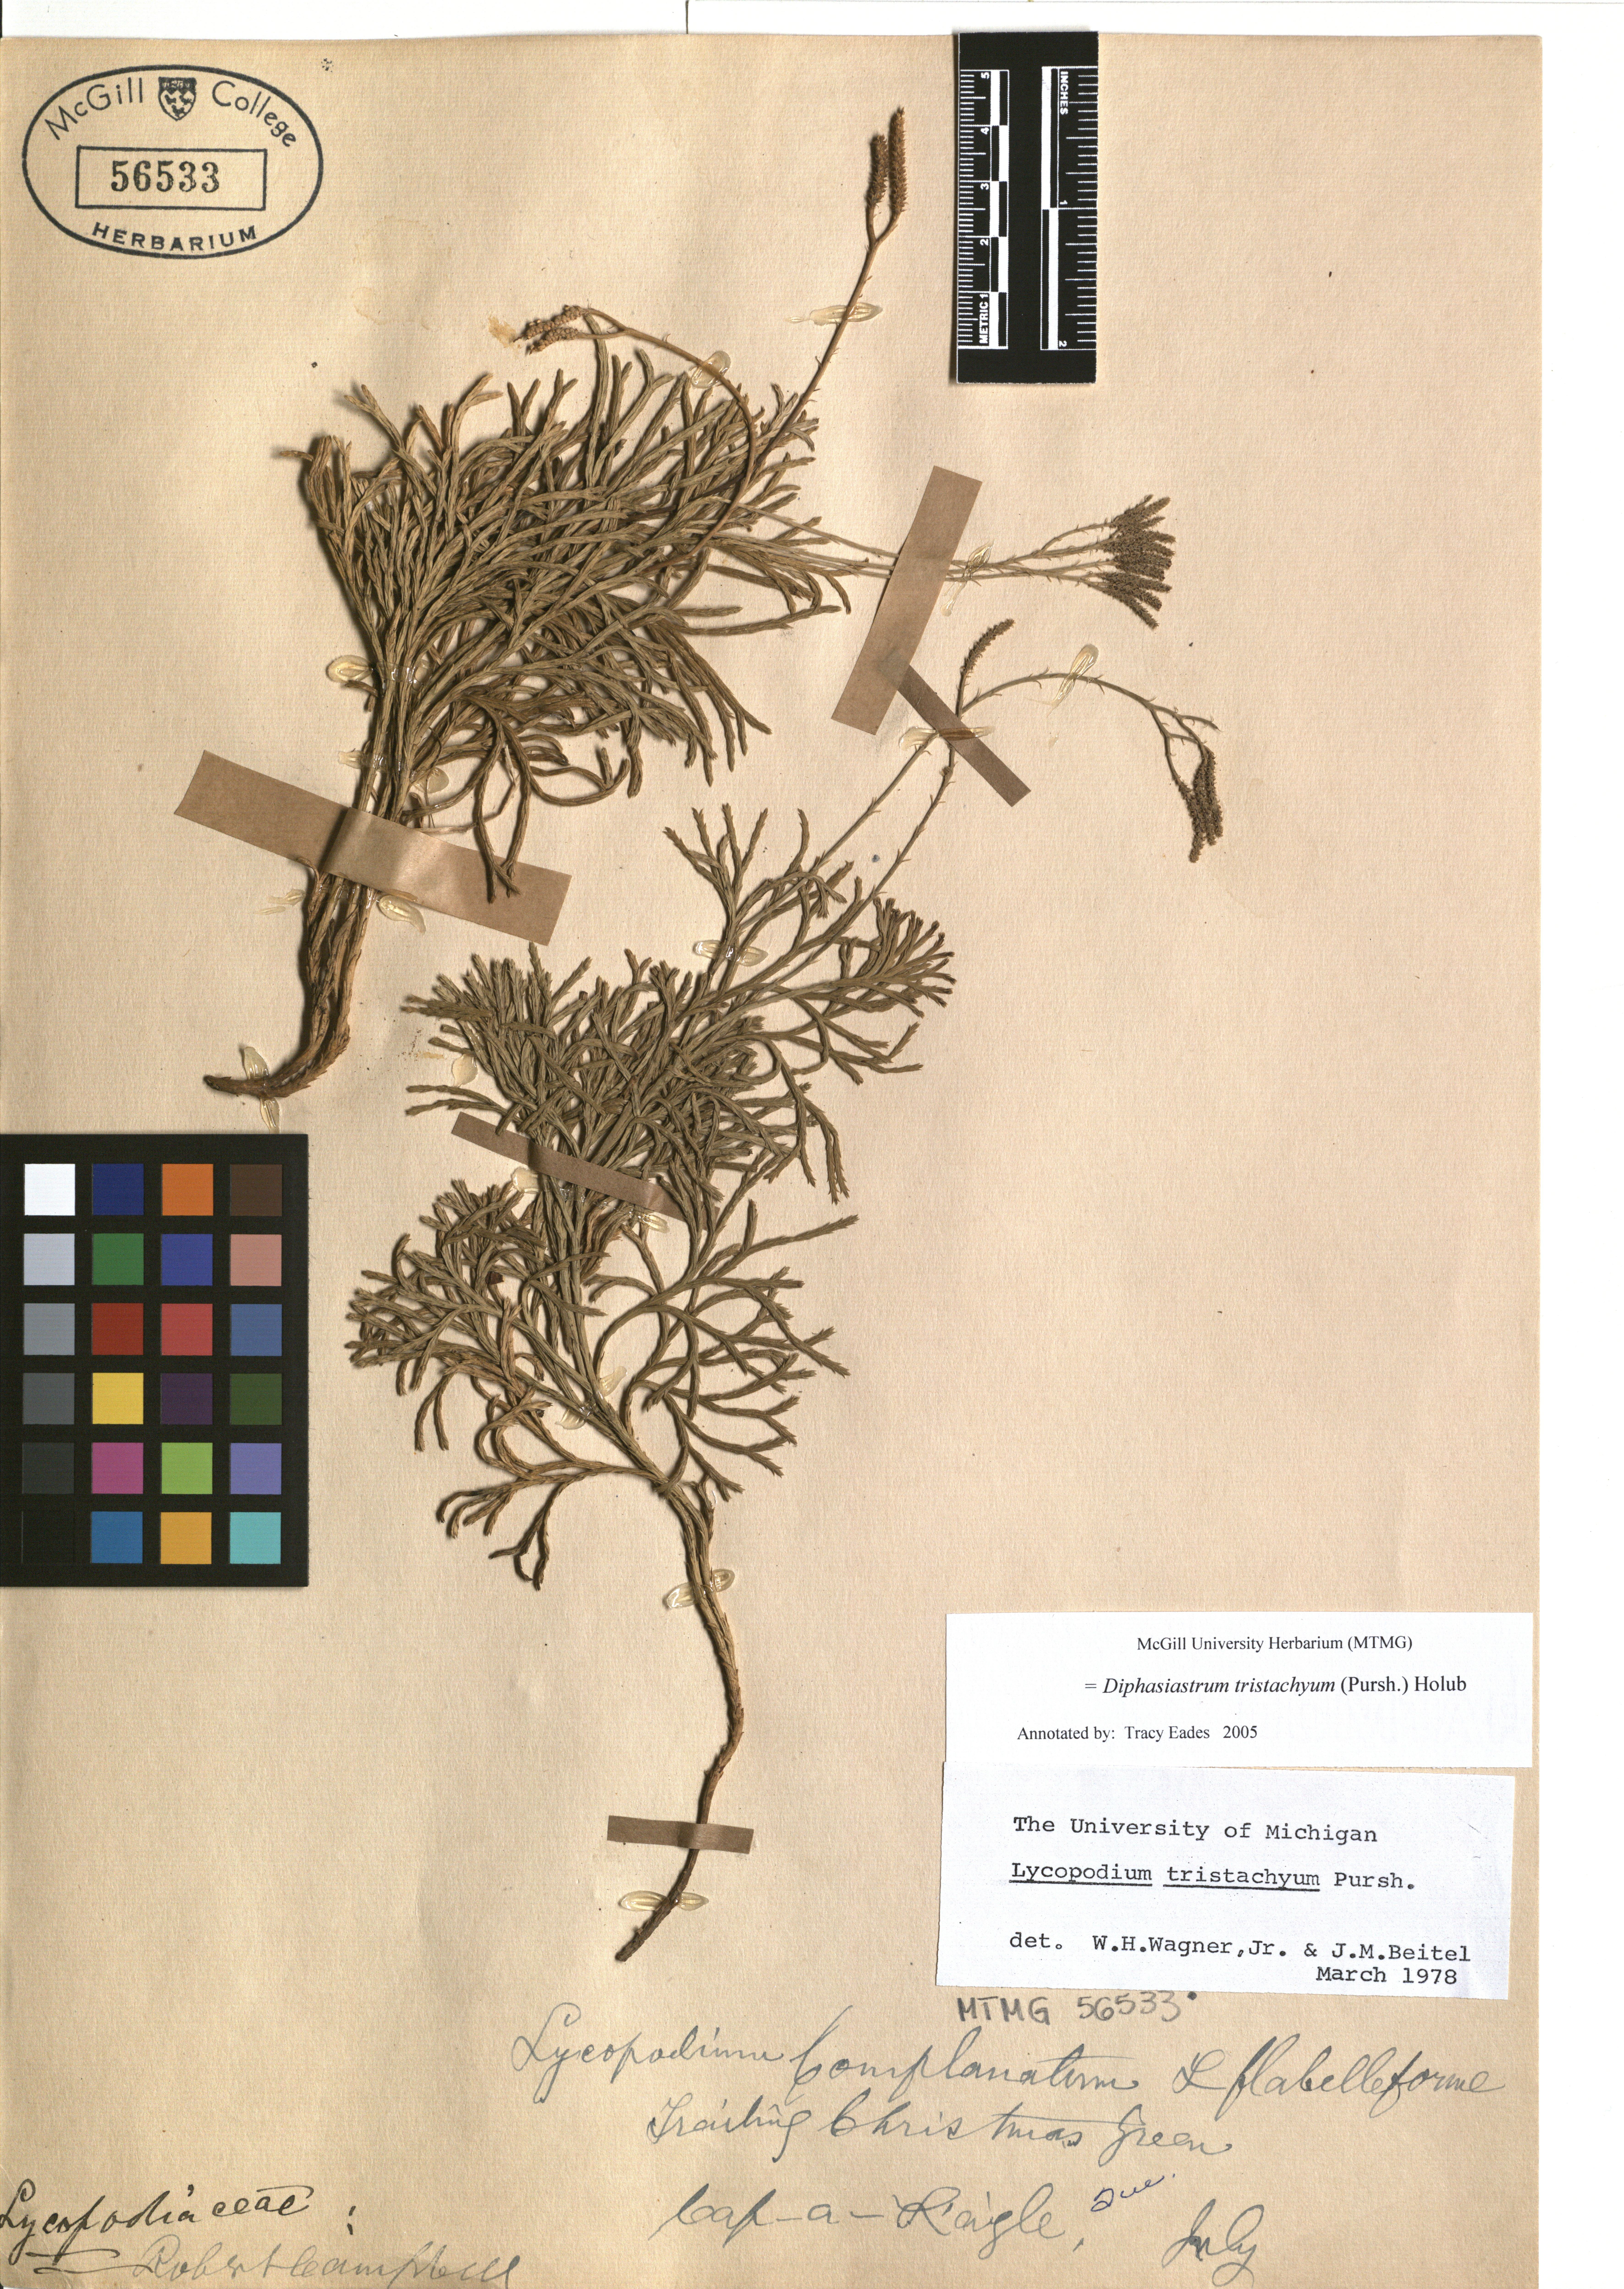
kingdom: Plantae
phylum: Tracheophyta
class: Lycopodiopsida
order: Lycopodiales
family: Lycopodiaceae
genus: Diphasiastrum
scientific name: Diphasiastrum tristachyum
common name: Blue ground-cedar
